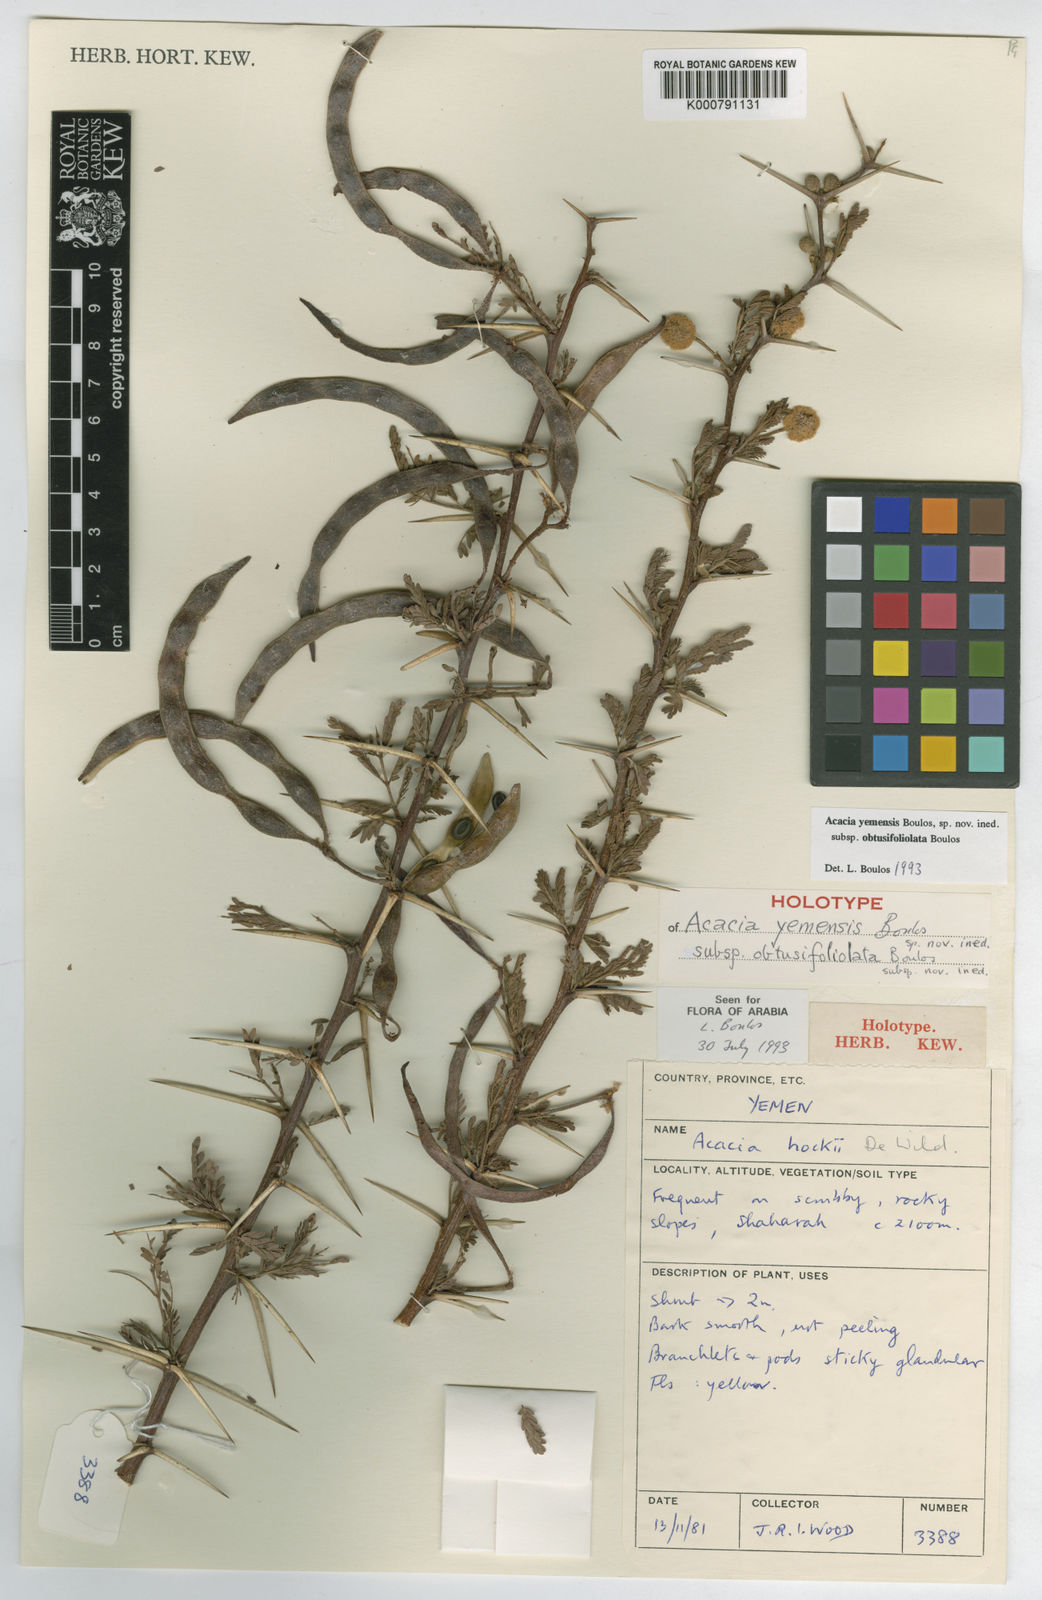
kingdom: Plantae
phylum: Tracheophyta
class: Magnoliopsida
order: Fabales
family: Fabaceae
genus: Acacia
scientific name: Acacia
